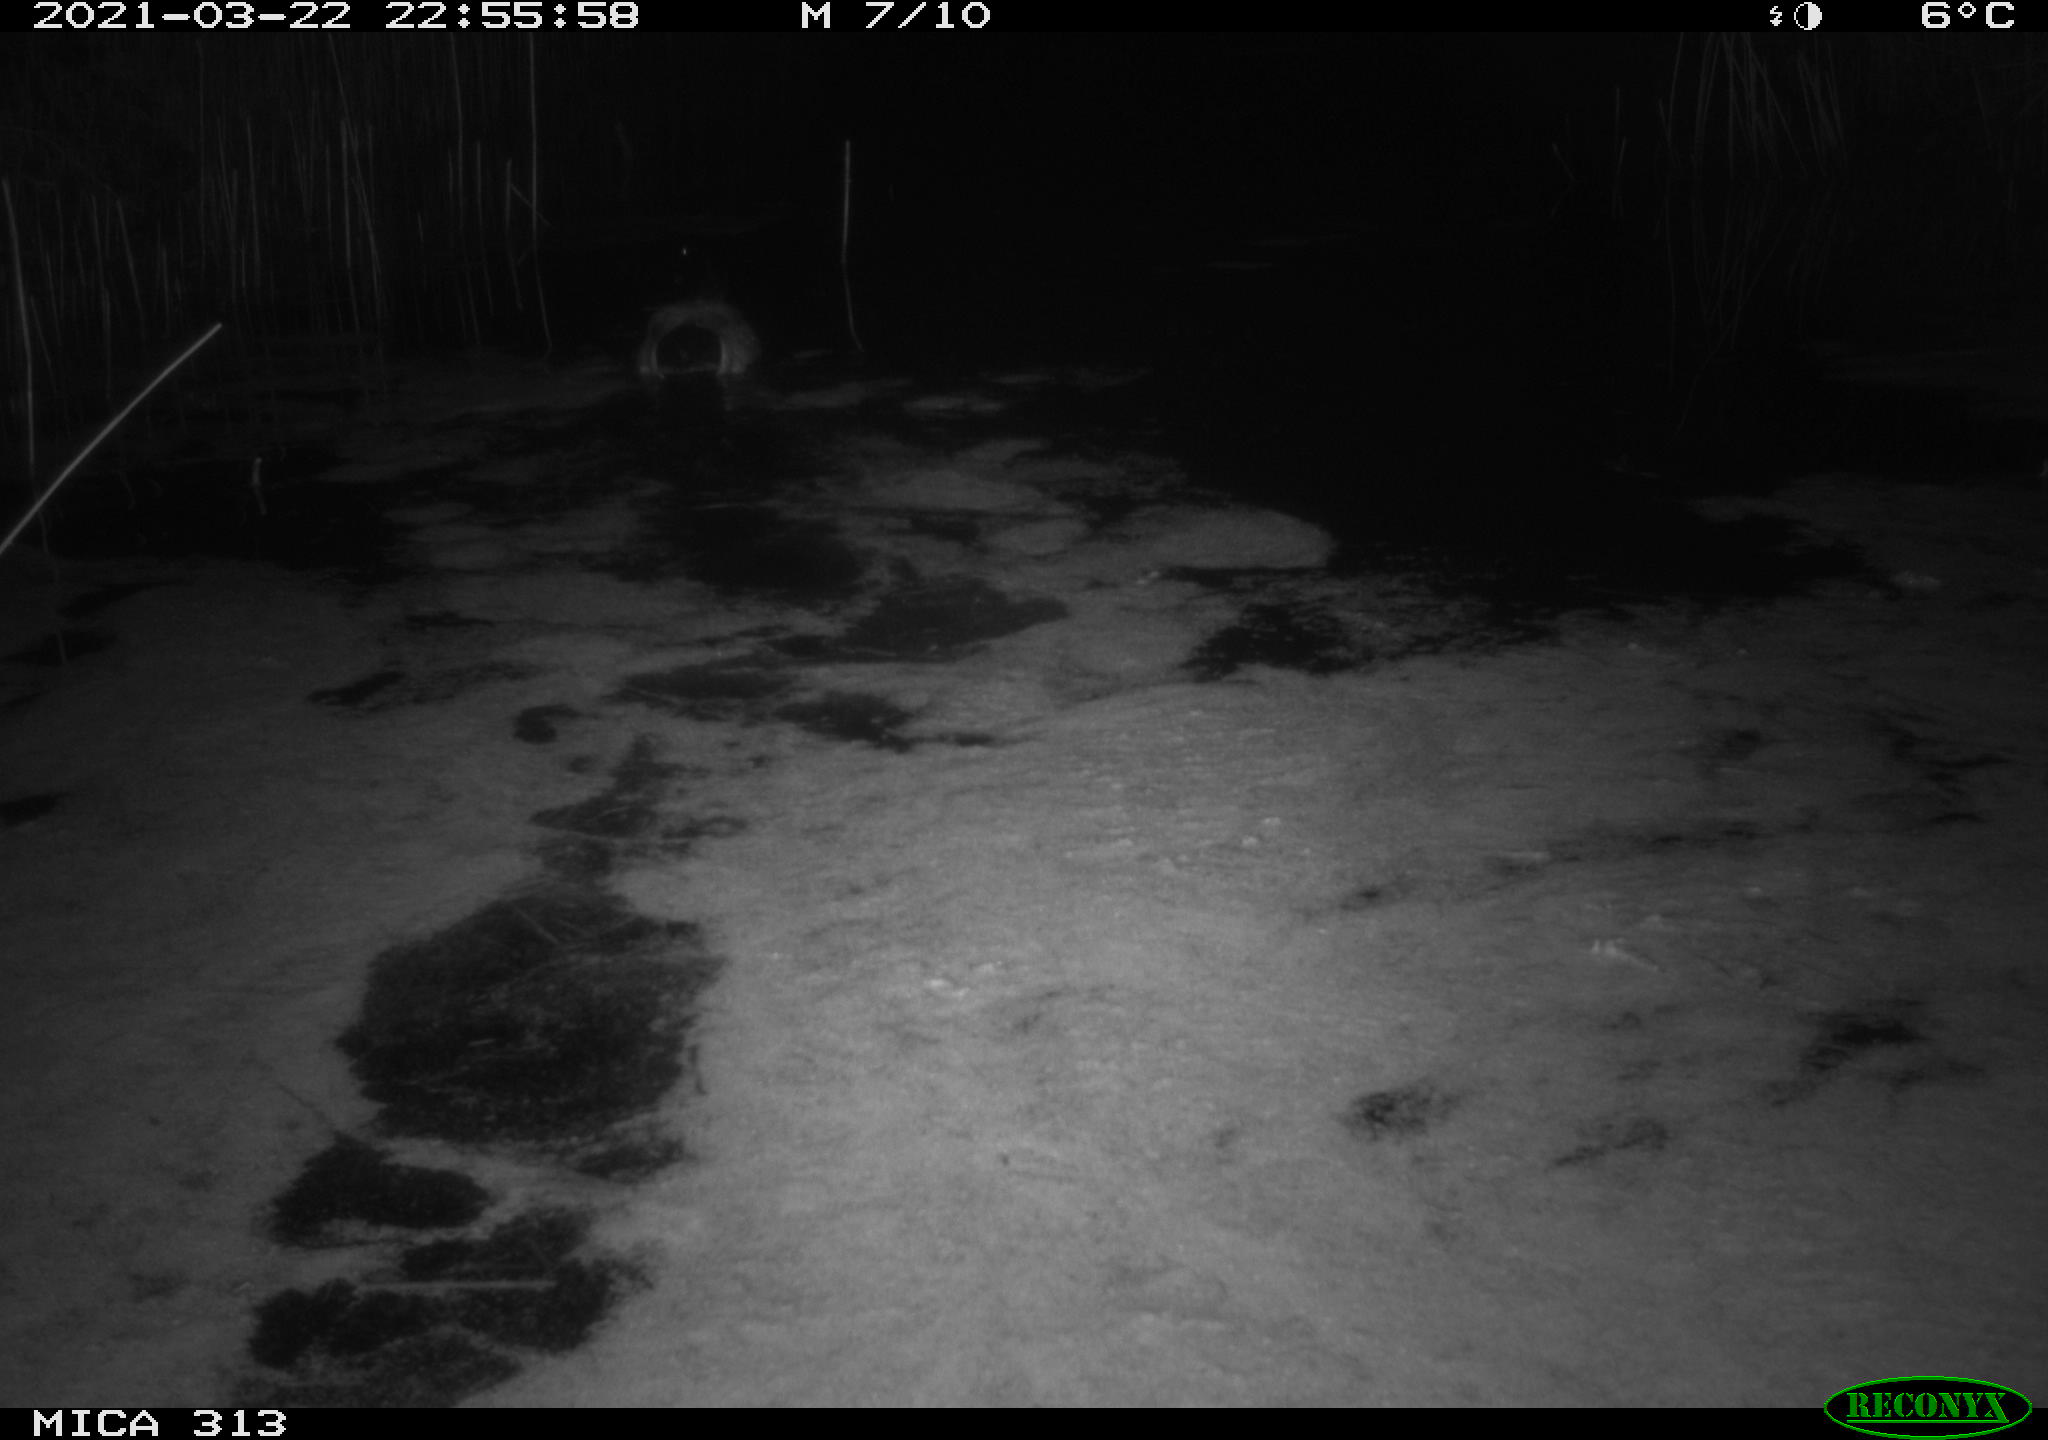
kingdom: Animalia
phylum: Chordata
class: Aves
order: Anseriformes
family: Anatidae
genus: Anas
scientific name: Anas platyrhynchos
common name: Mallard
